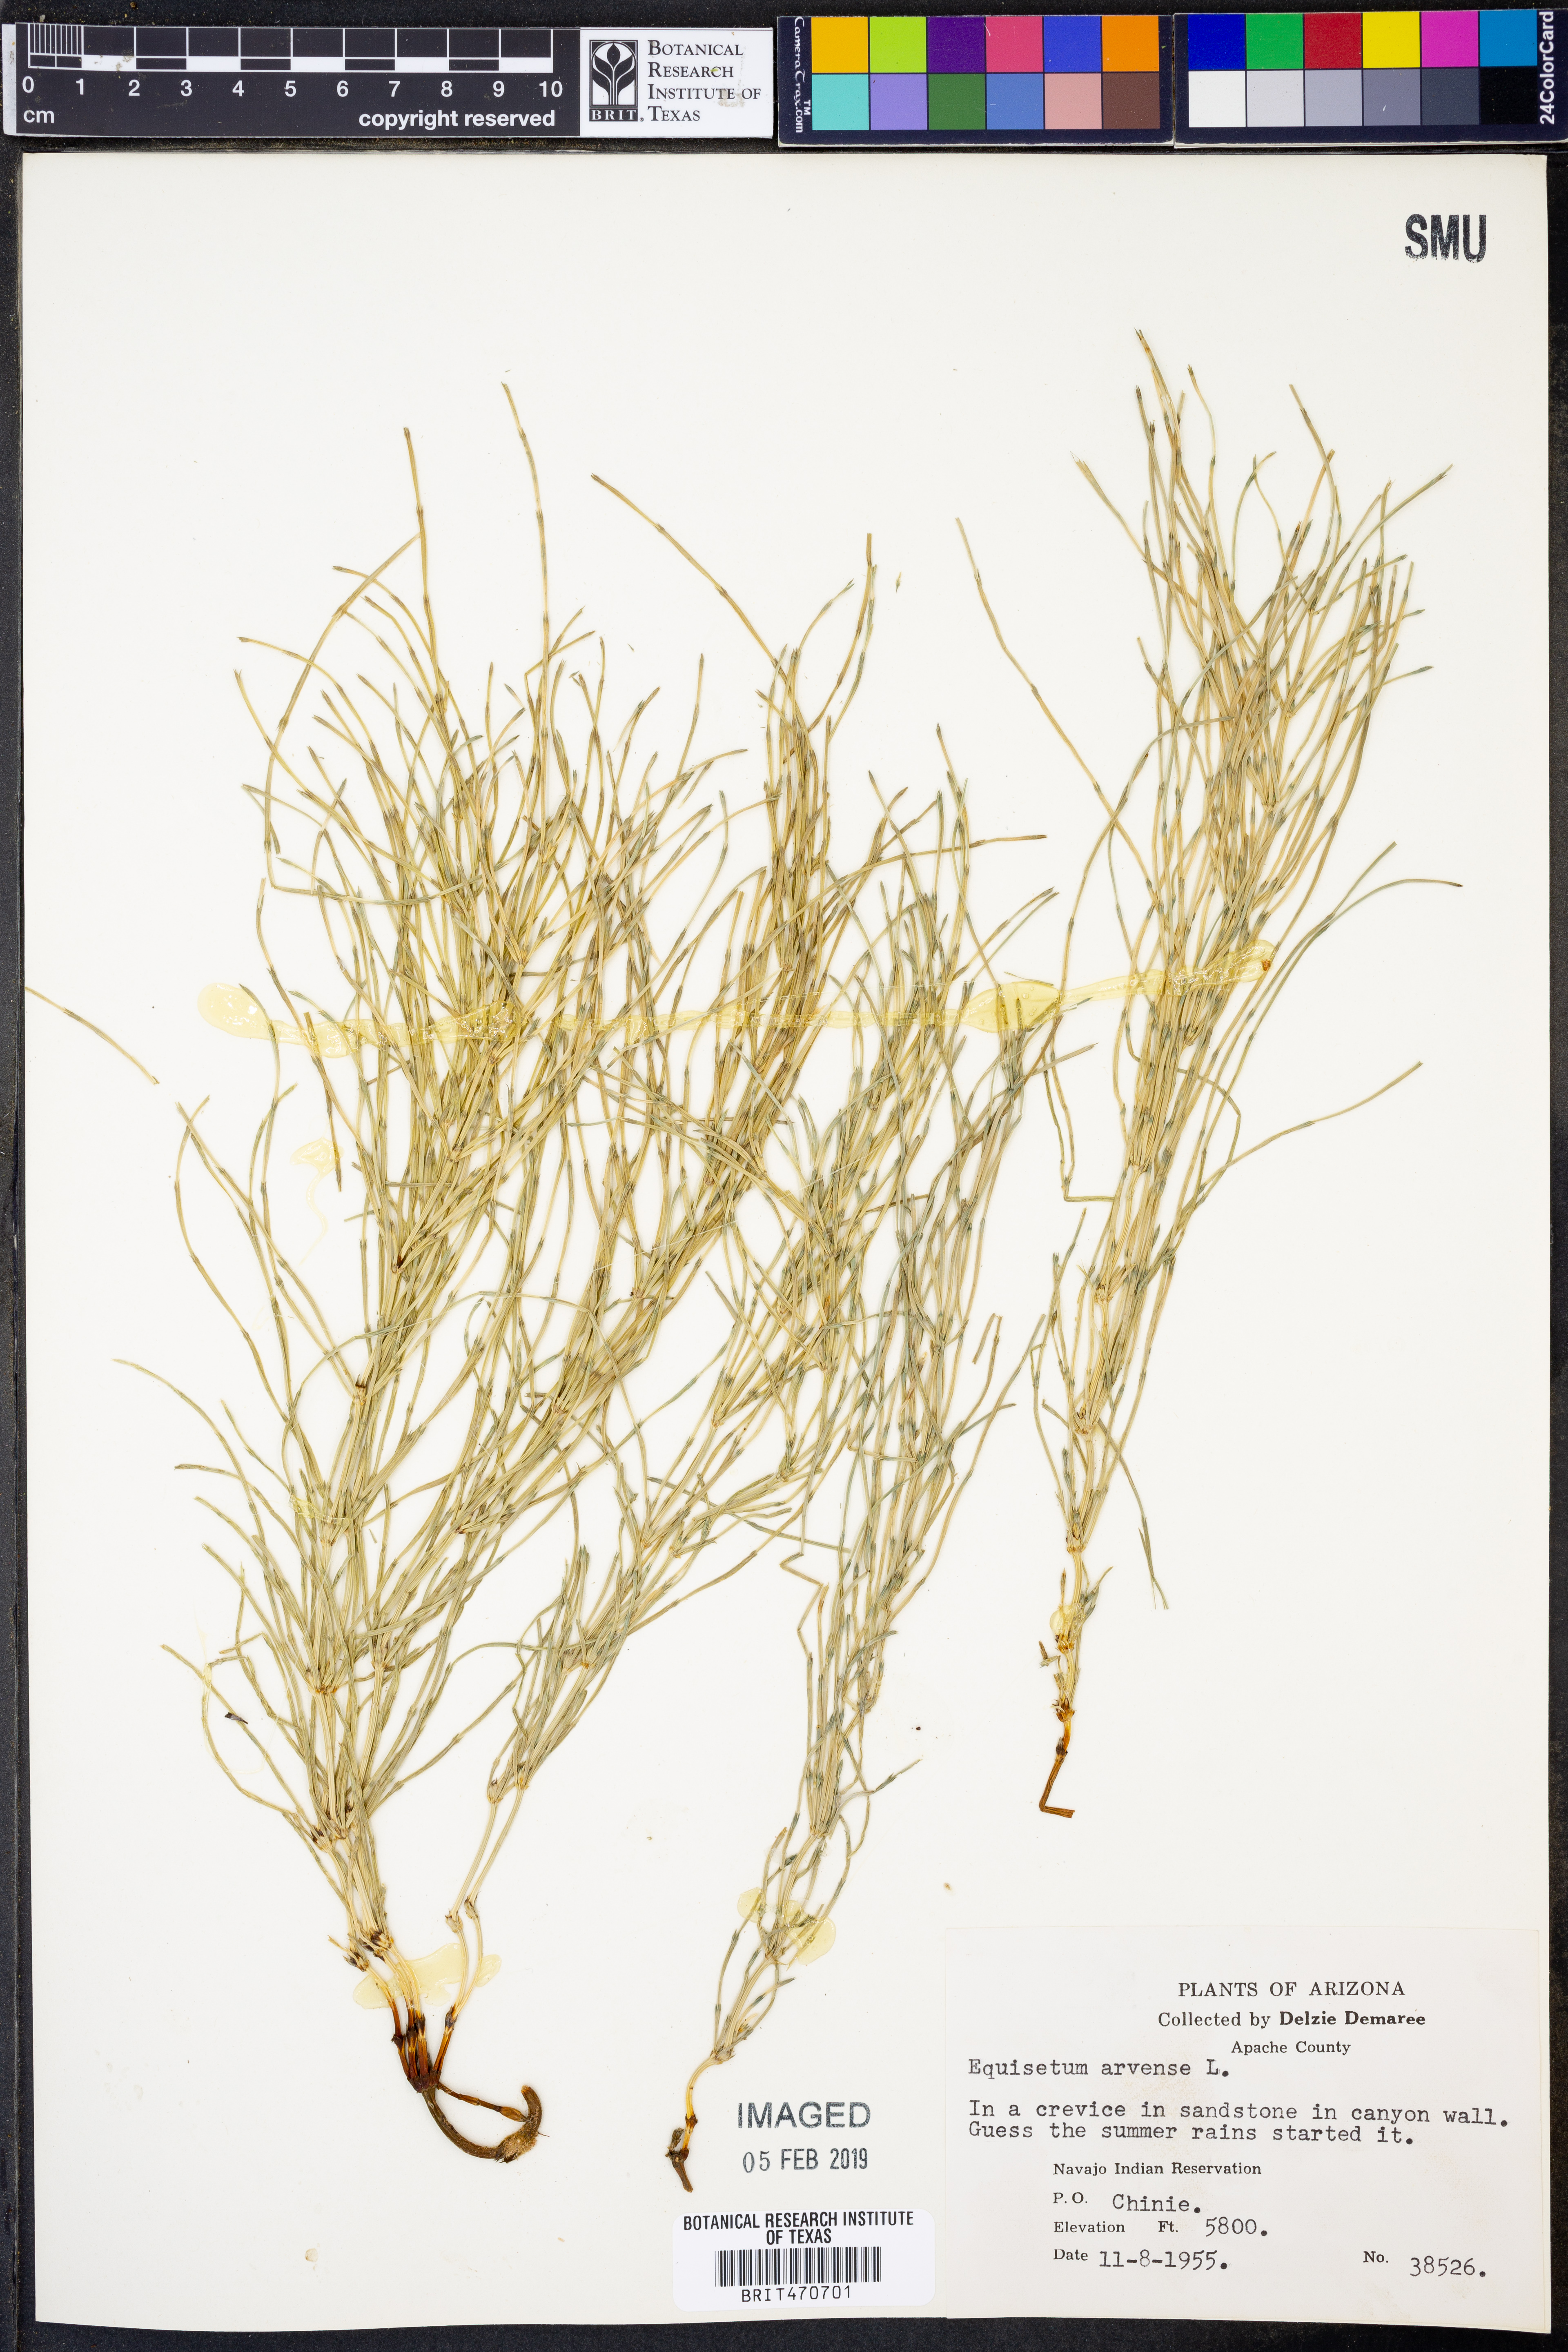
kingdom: Plantae
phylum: Tracheophyta
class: Polypodiopsida
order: Equisetales
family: Equisetaceae
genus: Equisetum
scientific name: Equisetum arvense
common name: Field horsetail
